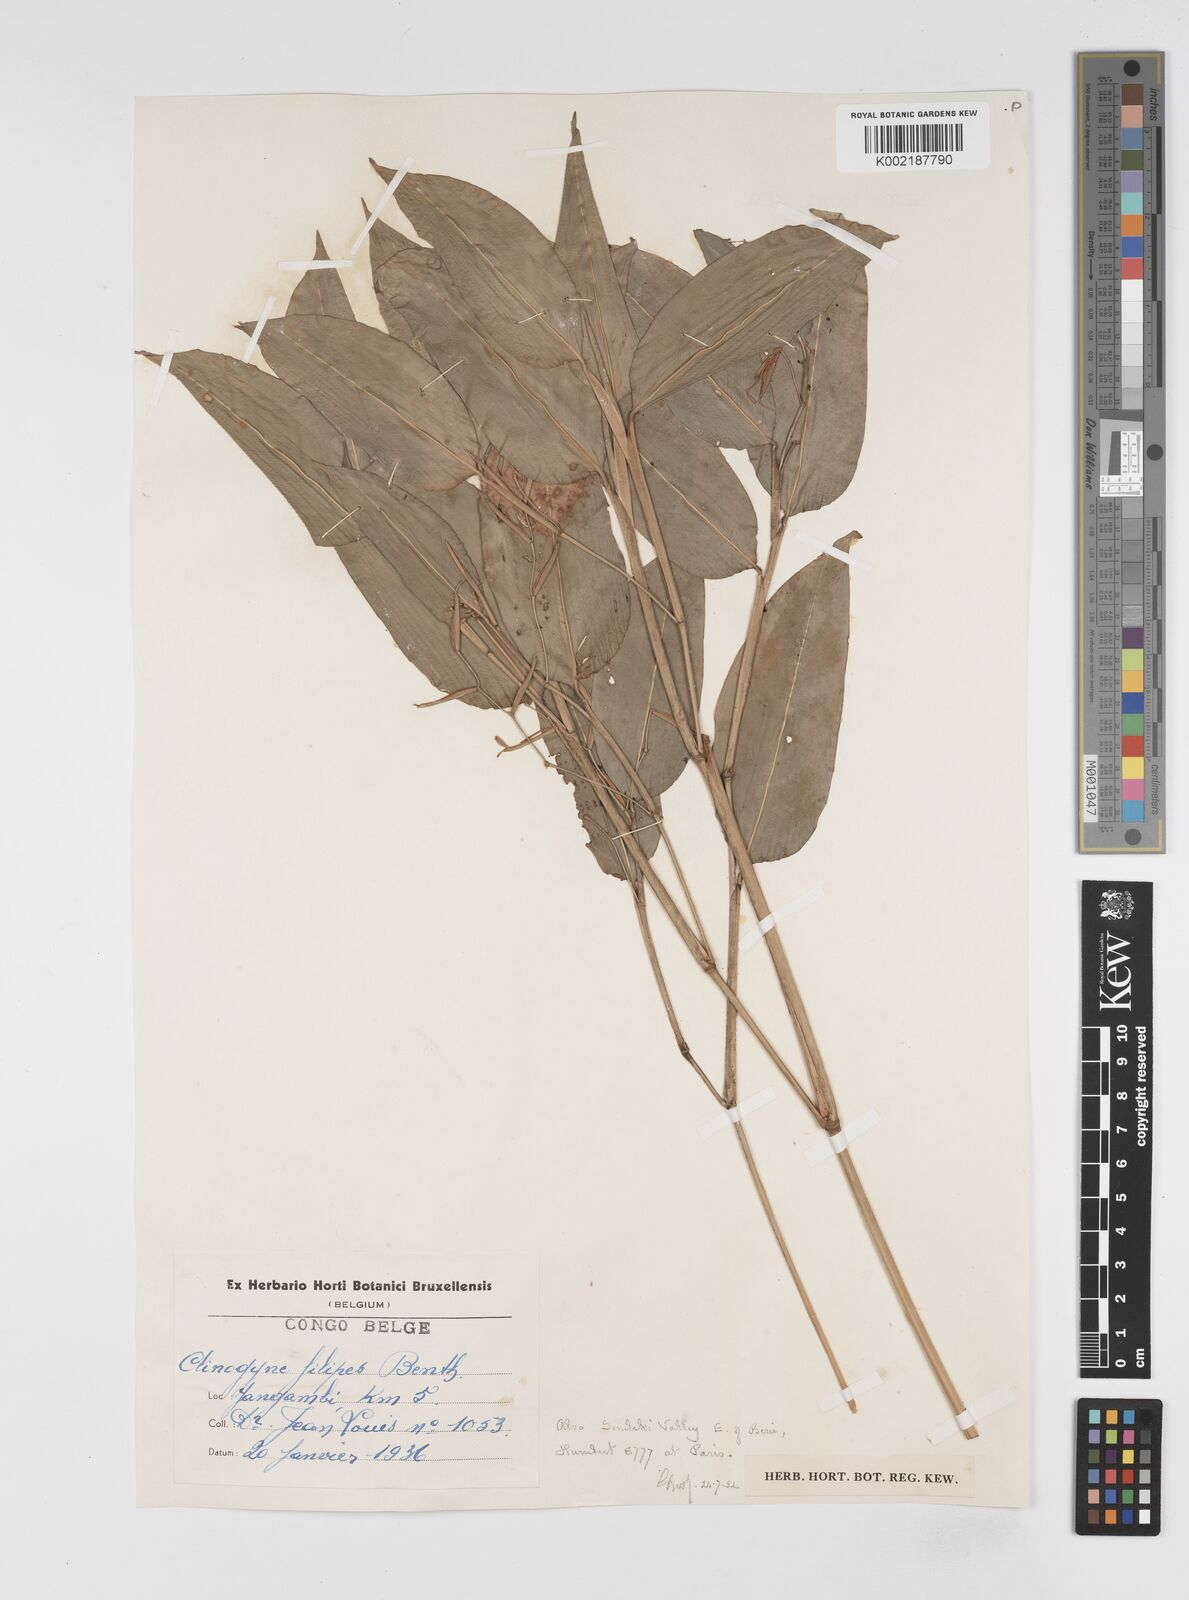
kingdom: Plantae
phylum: Tracheophyta
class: Liliopsida
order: Zingiberales
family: Marantaceae
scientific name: Marantaceae
